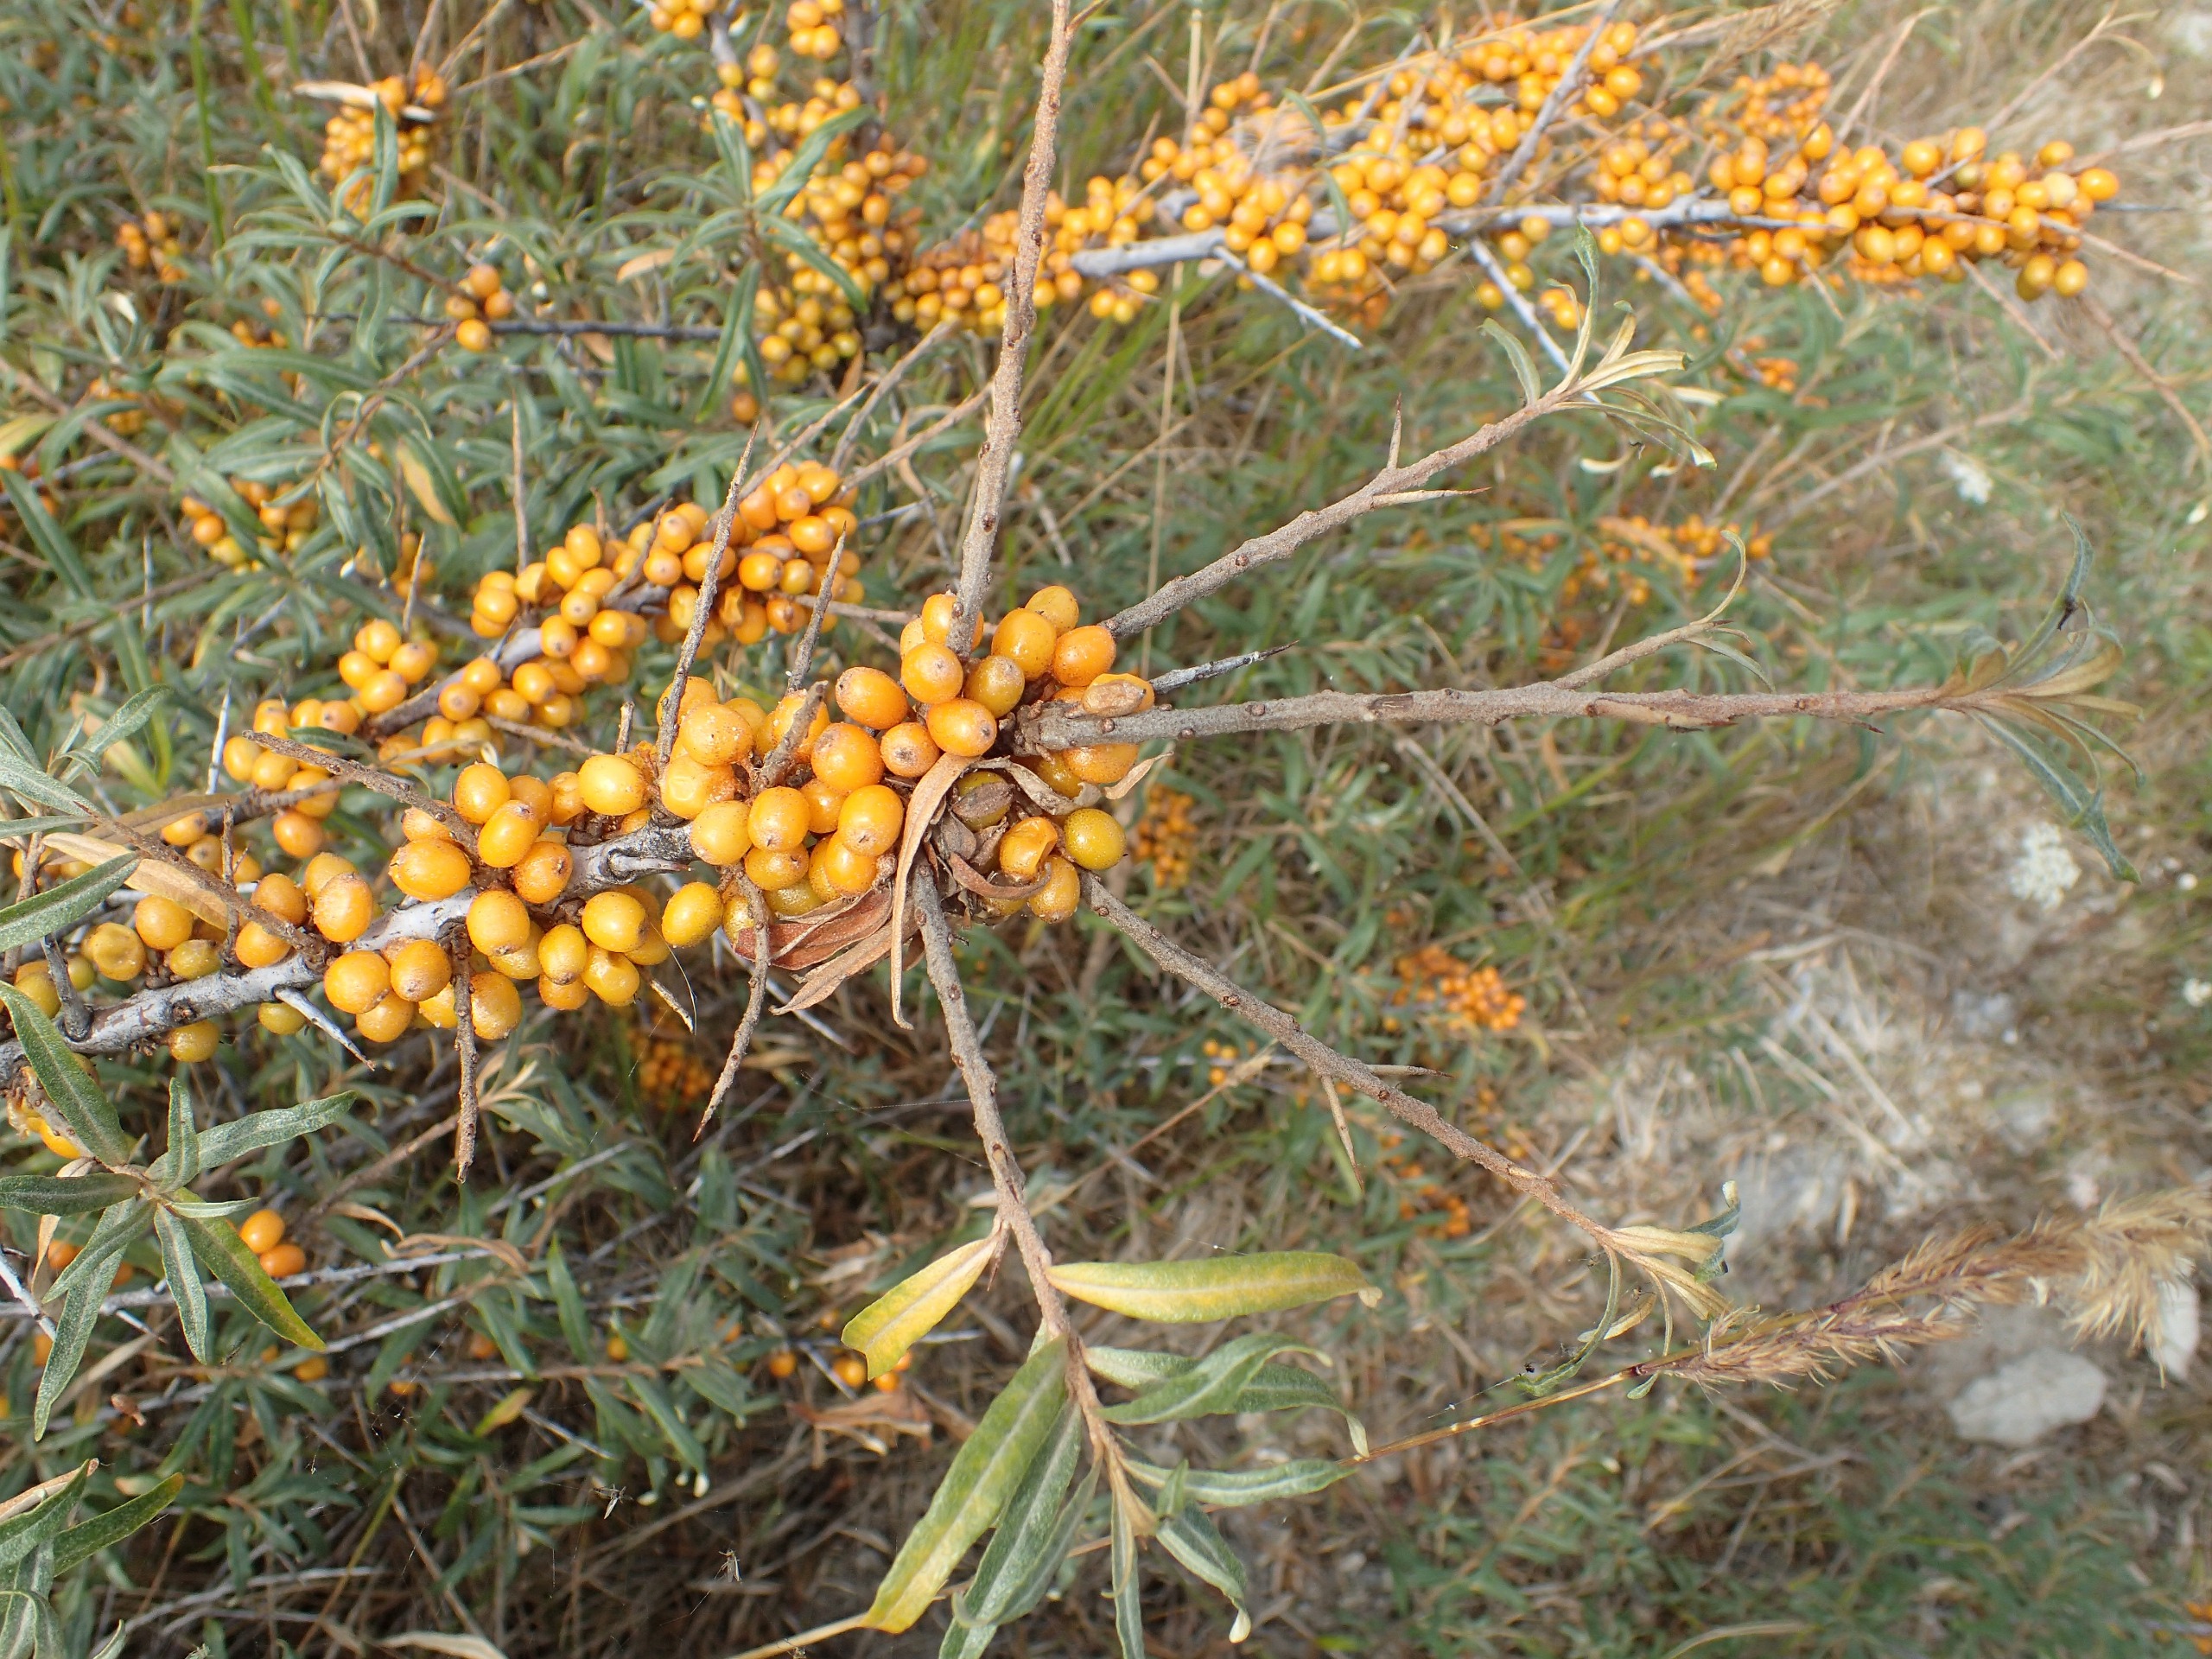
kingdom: Plantae
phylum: Tracheophyta
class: Magnoliopsida
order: Rosales
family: Elaeagnaceae
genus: Hippophae
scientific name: Hippophae rhamnoides
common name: Havtorn
